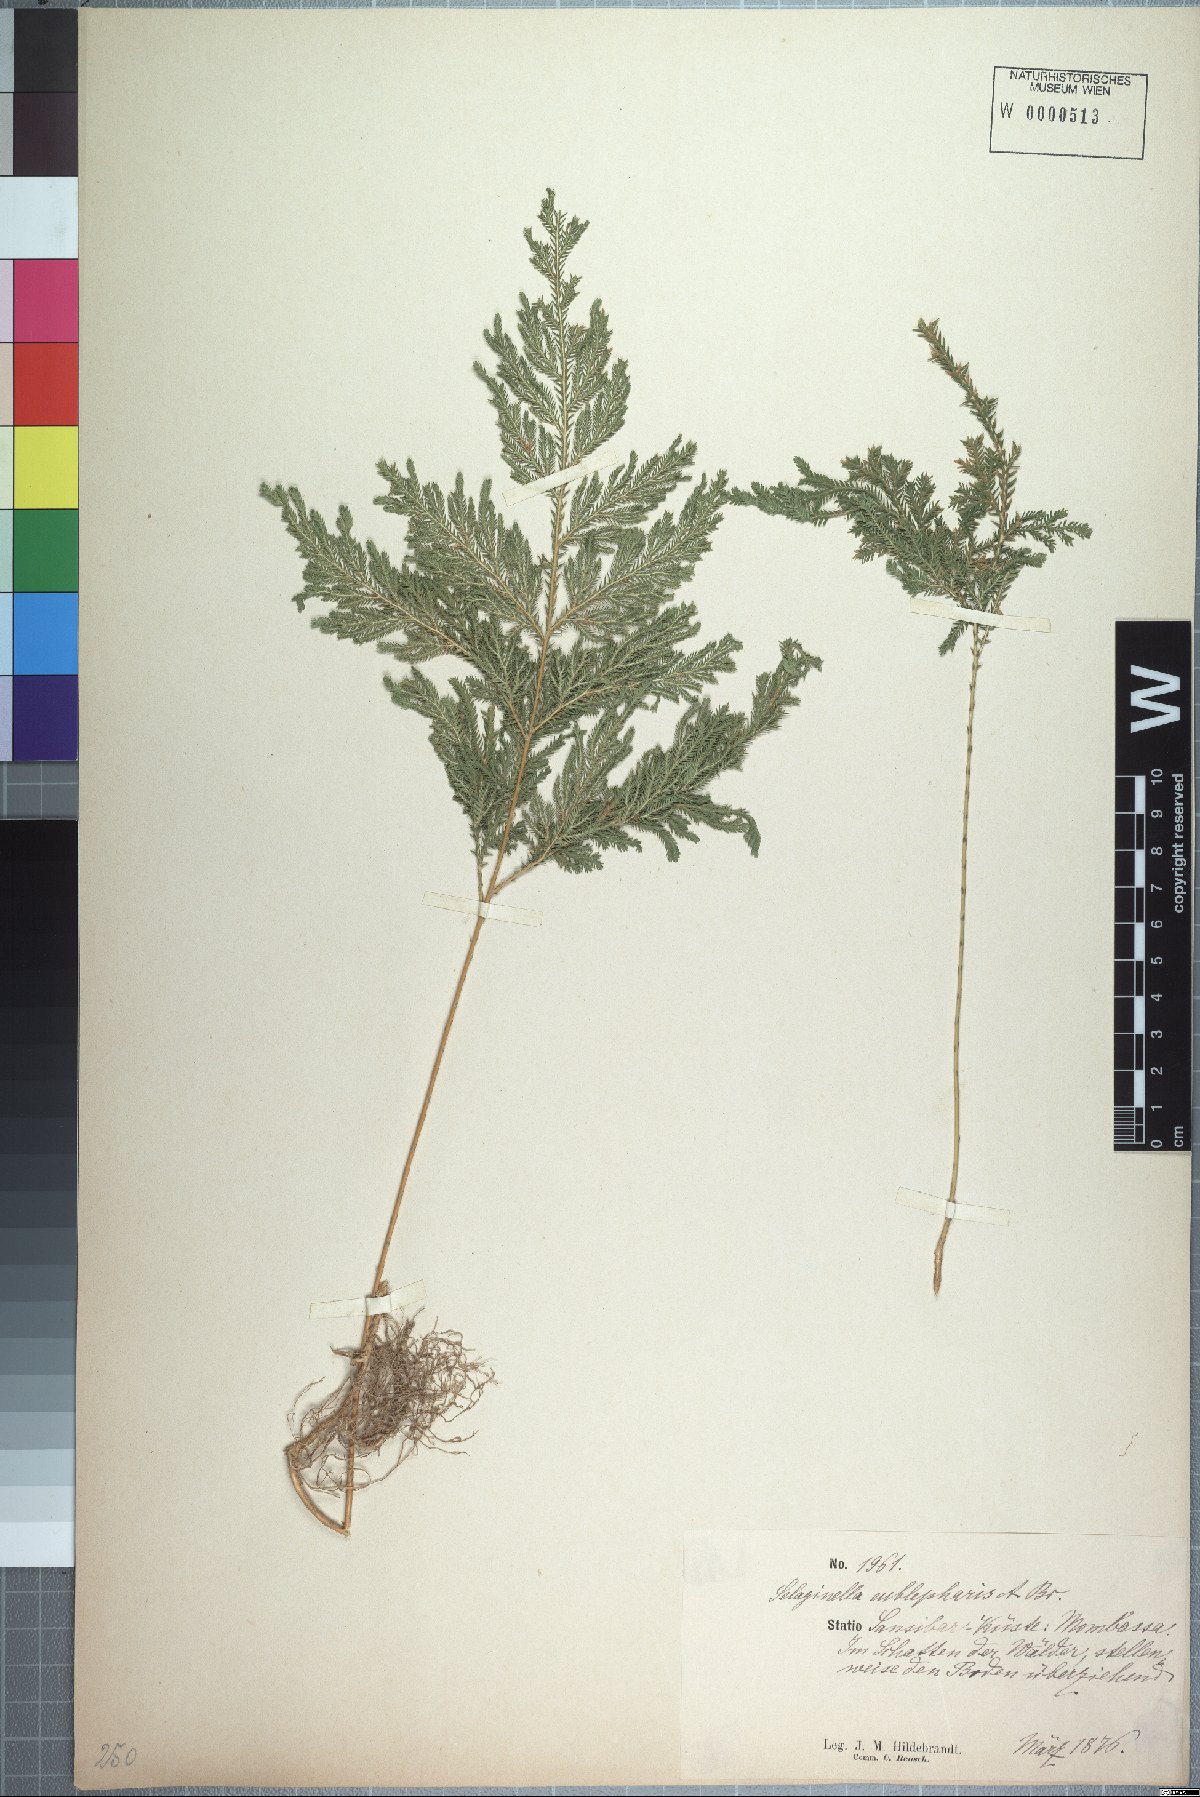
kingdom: Plantae
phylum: Tracheophyta
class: Lycopodiopsida
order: Selaginellales
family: Selaginellaceae
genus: Selaginella
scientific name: Selaginella eublepharis
